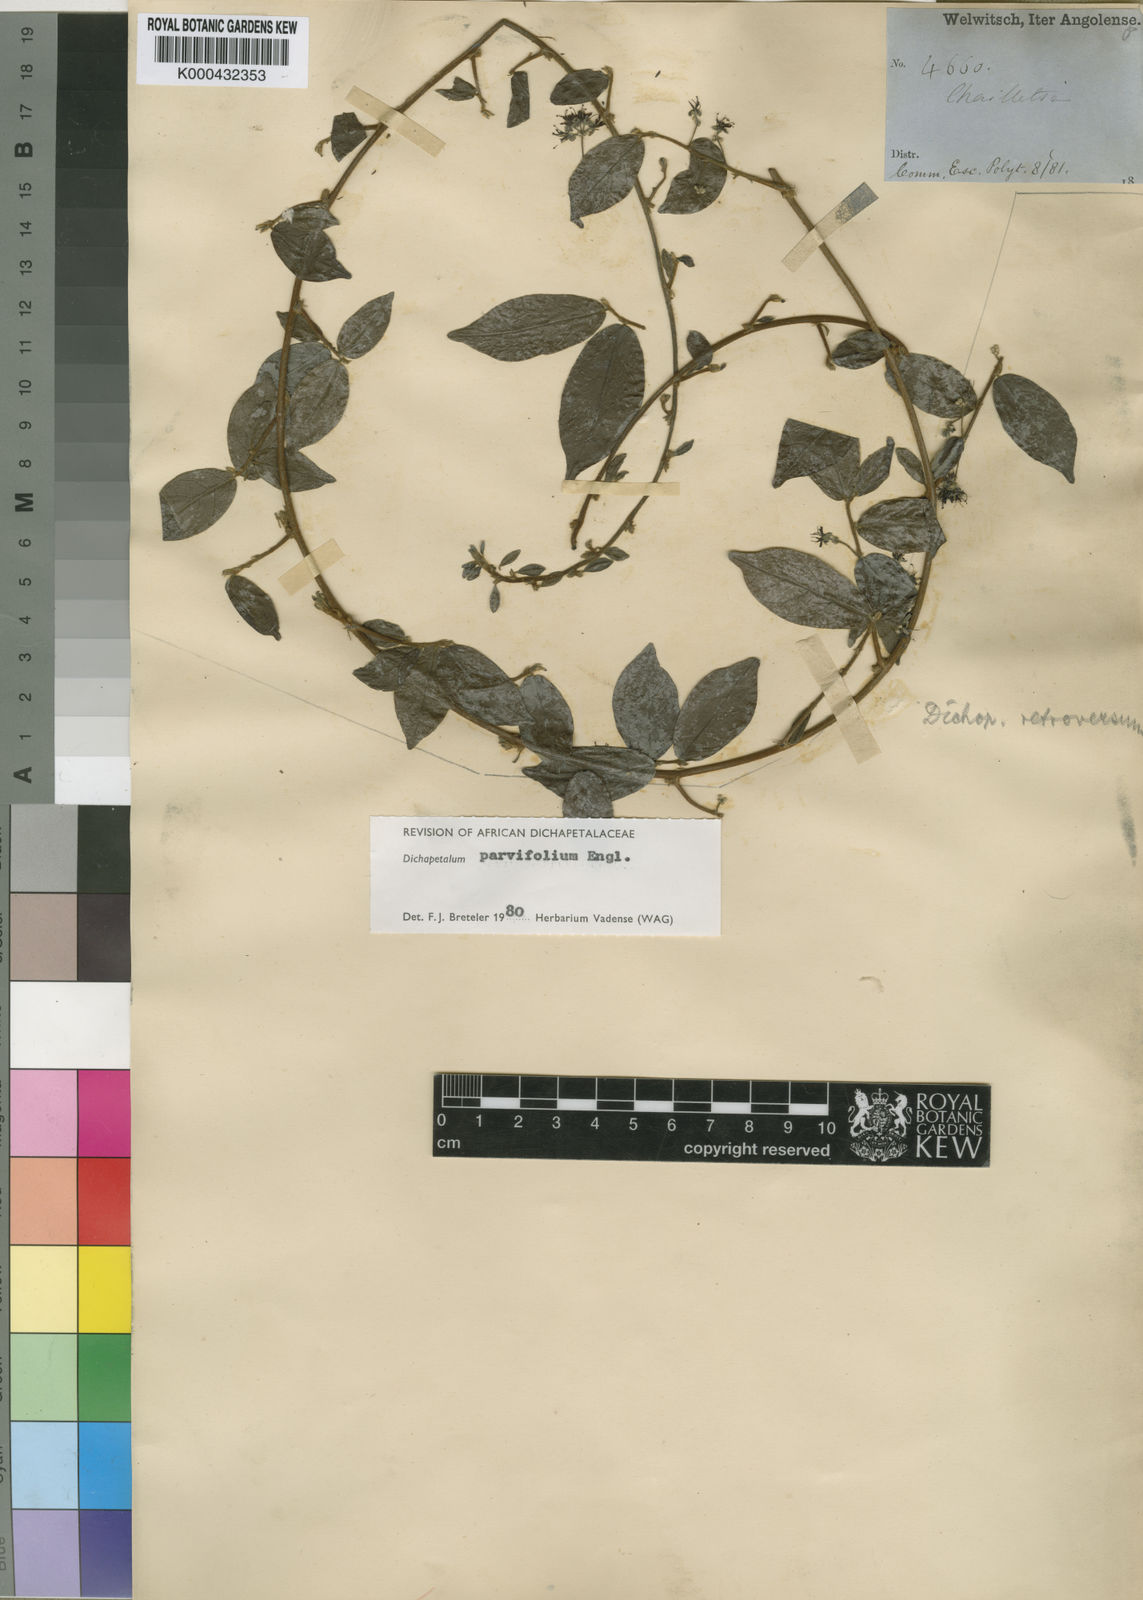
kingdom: Plantae
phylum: Tracheophyta
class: Magnoliopsida
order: Malpighiales
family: Dichapetalaceae
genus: Dichapetalum
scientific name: Dichapetalum parvifolium
